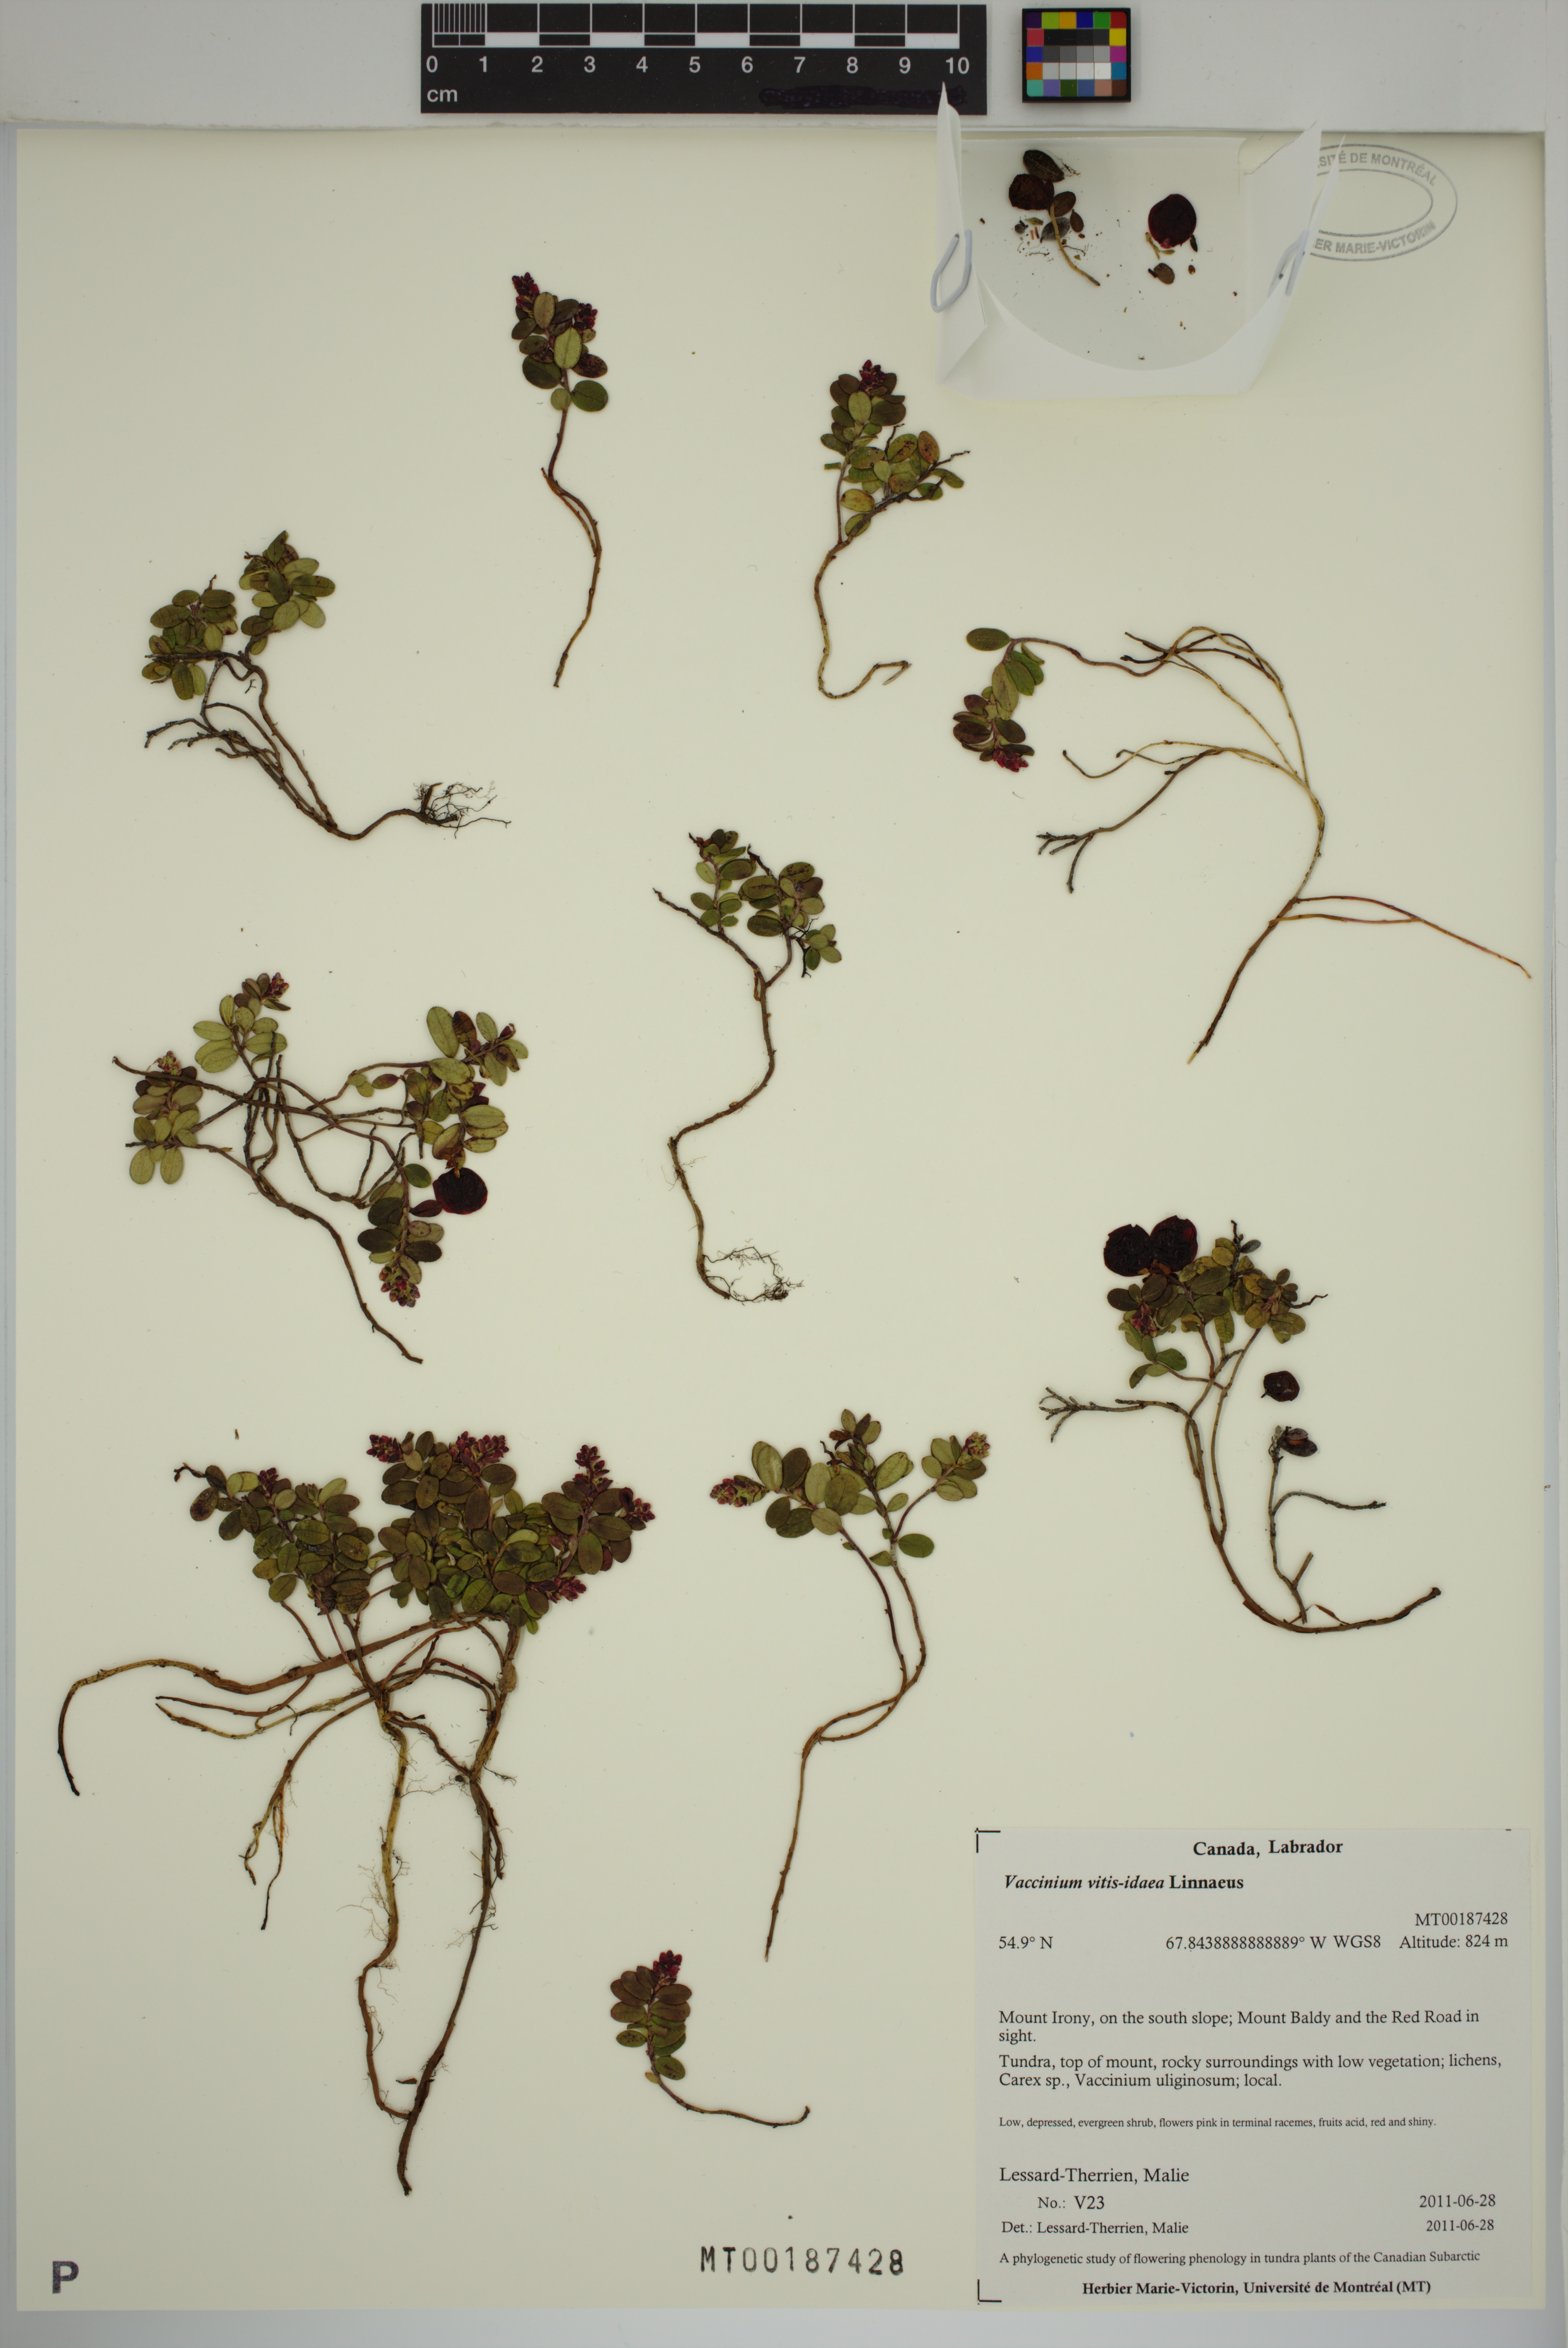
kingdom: Plantae
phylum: Tracheophyta
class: Magnoliopsida
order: Ericales
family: Ericaceae
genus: Vaccinium
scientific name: Vaccinium vitis-idaea
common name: Cowberry
